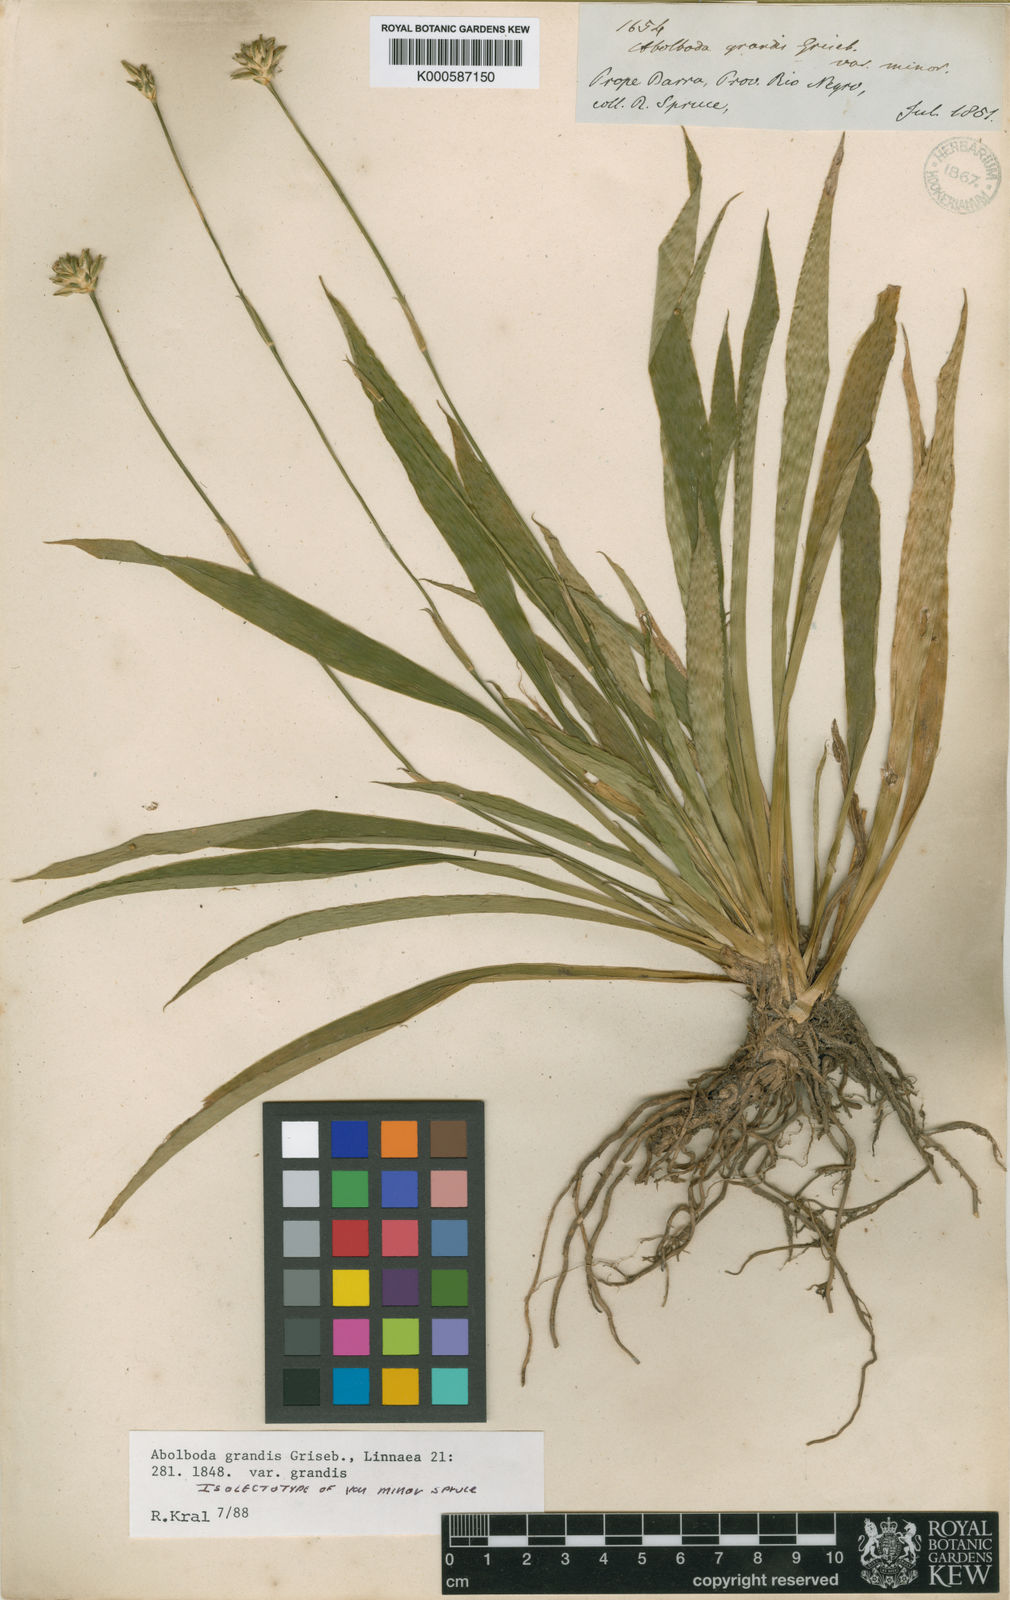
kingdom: Plantae
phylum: Tracheophyta
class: Liliopsida
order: Poales
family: Xyridaceae
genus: Abolboda
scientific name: Abolboda grandis
